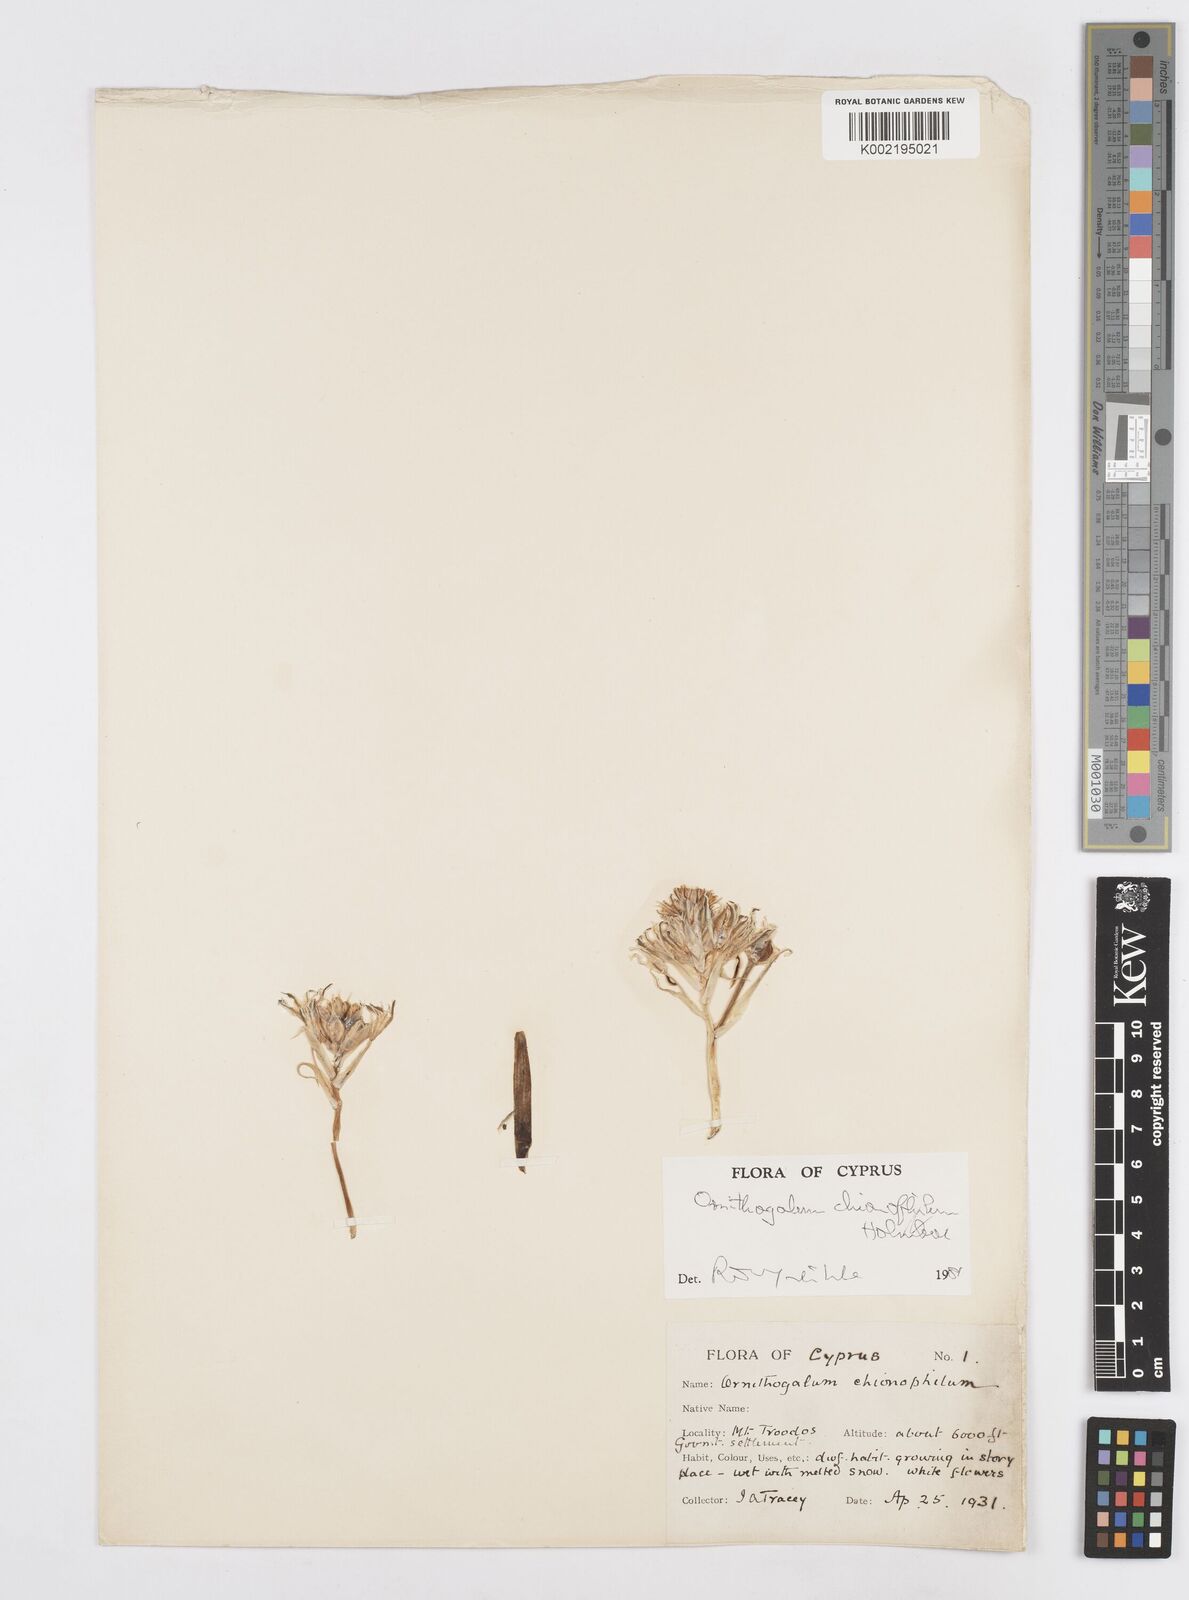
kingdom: Plantae
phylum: Tracheophyta
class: Liliopsida
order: Asparagales
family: Asparagaceae
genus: Ornithogalum
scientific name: Ornithogalum chionophilum
